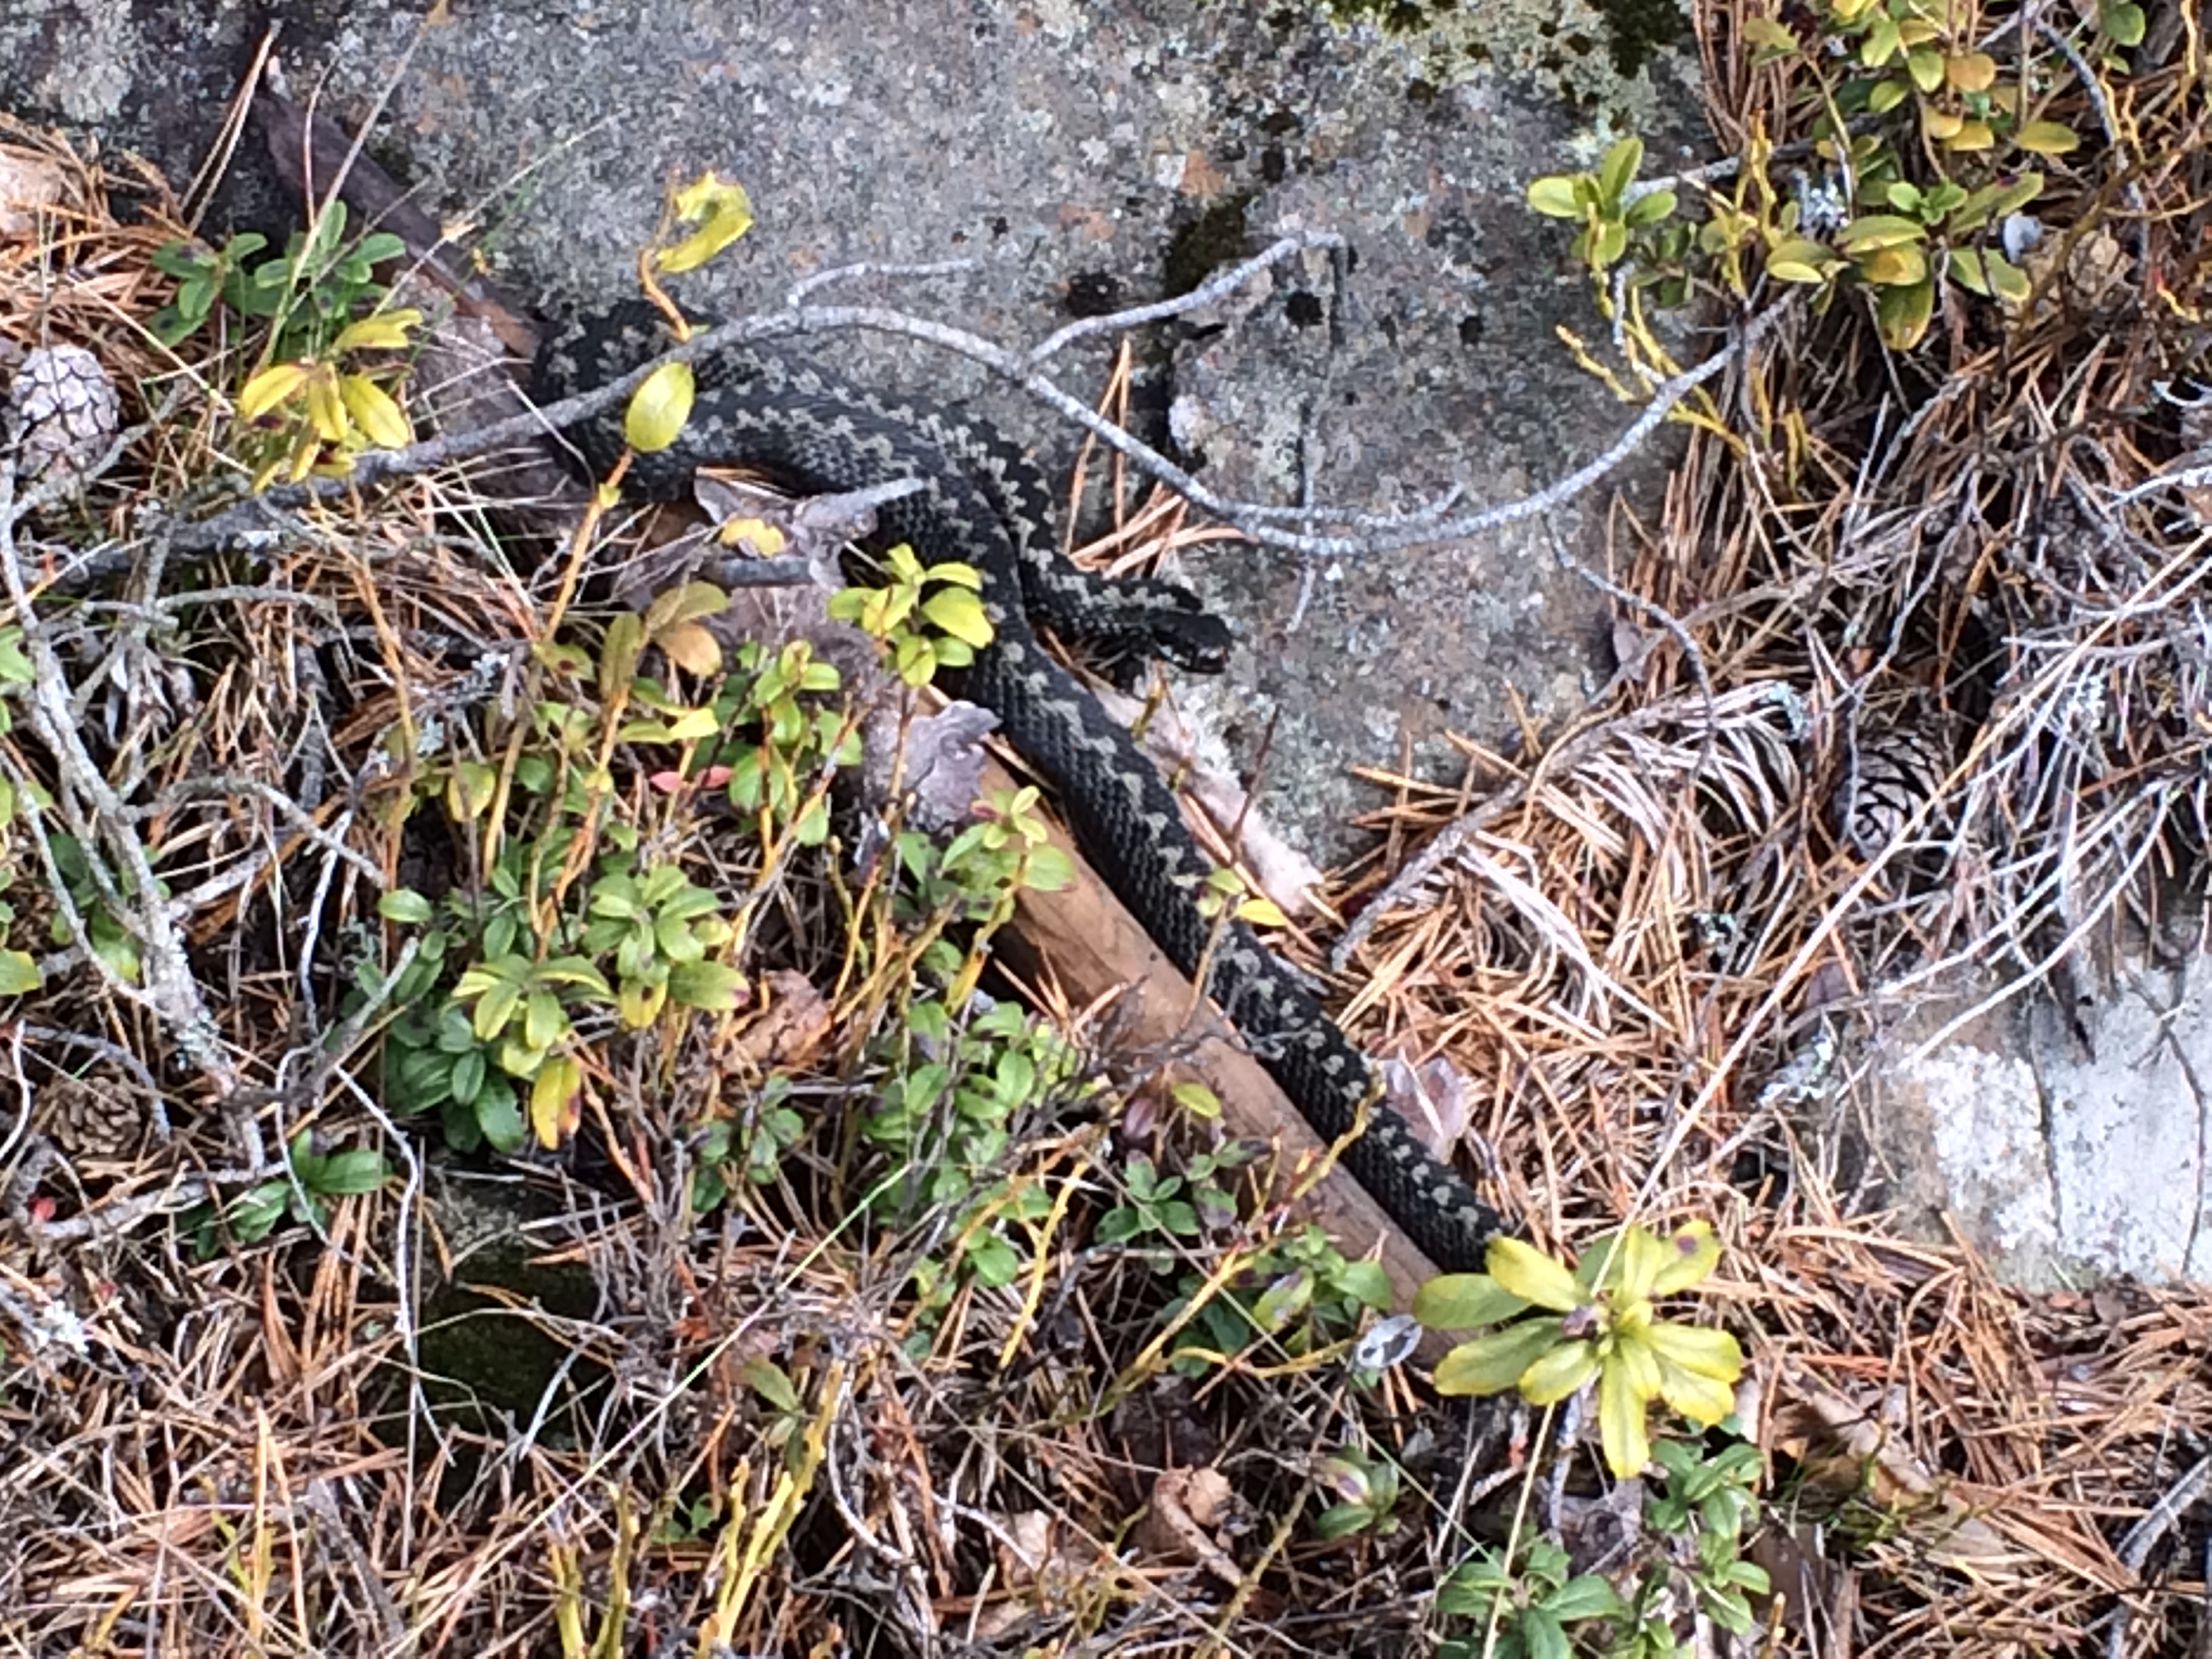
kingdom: Animalia
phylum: Chordata
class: Squamata
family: Viperidae
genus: Vipera
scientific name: Vipera berus
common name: Adder
